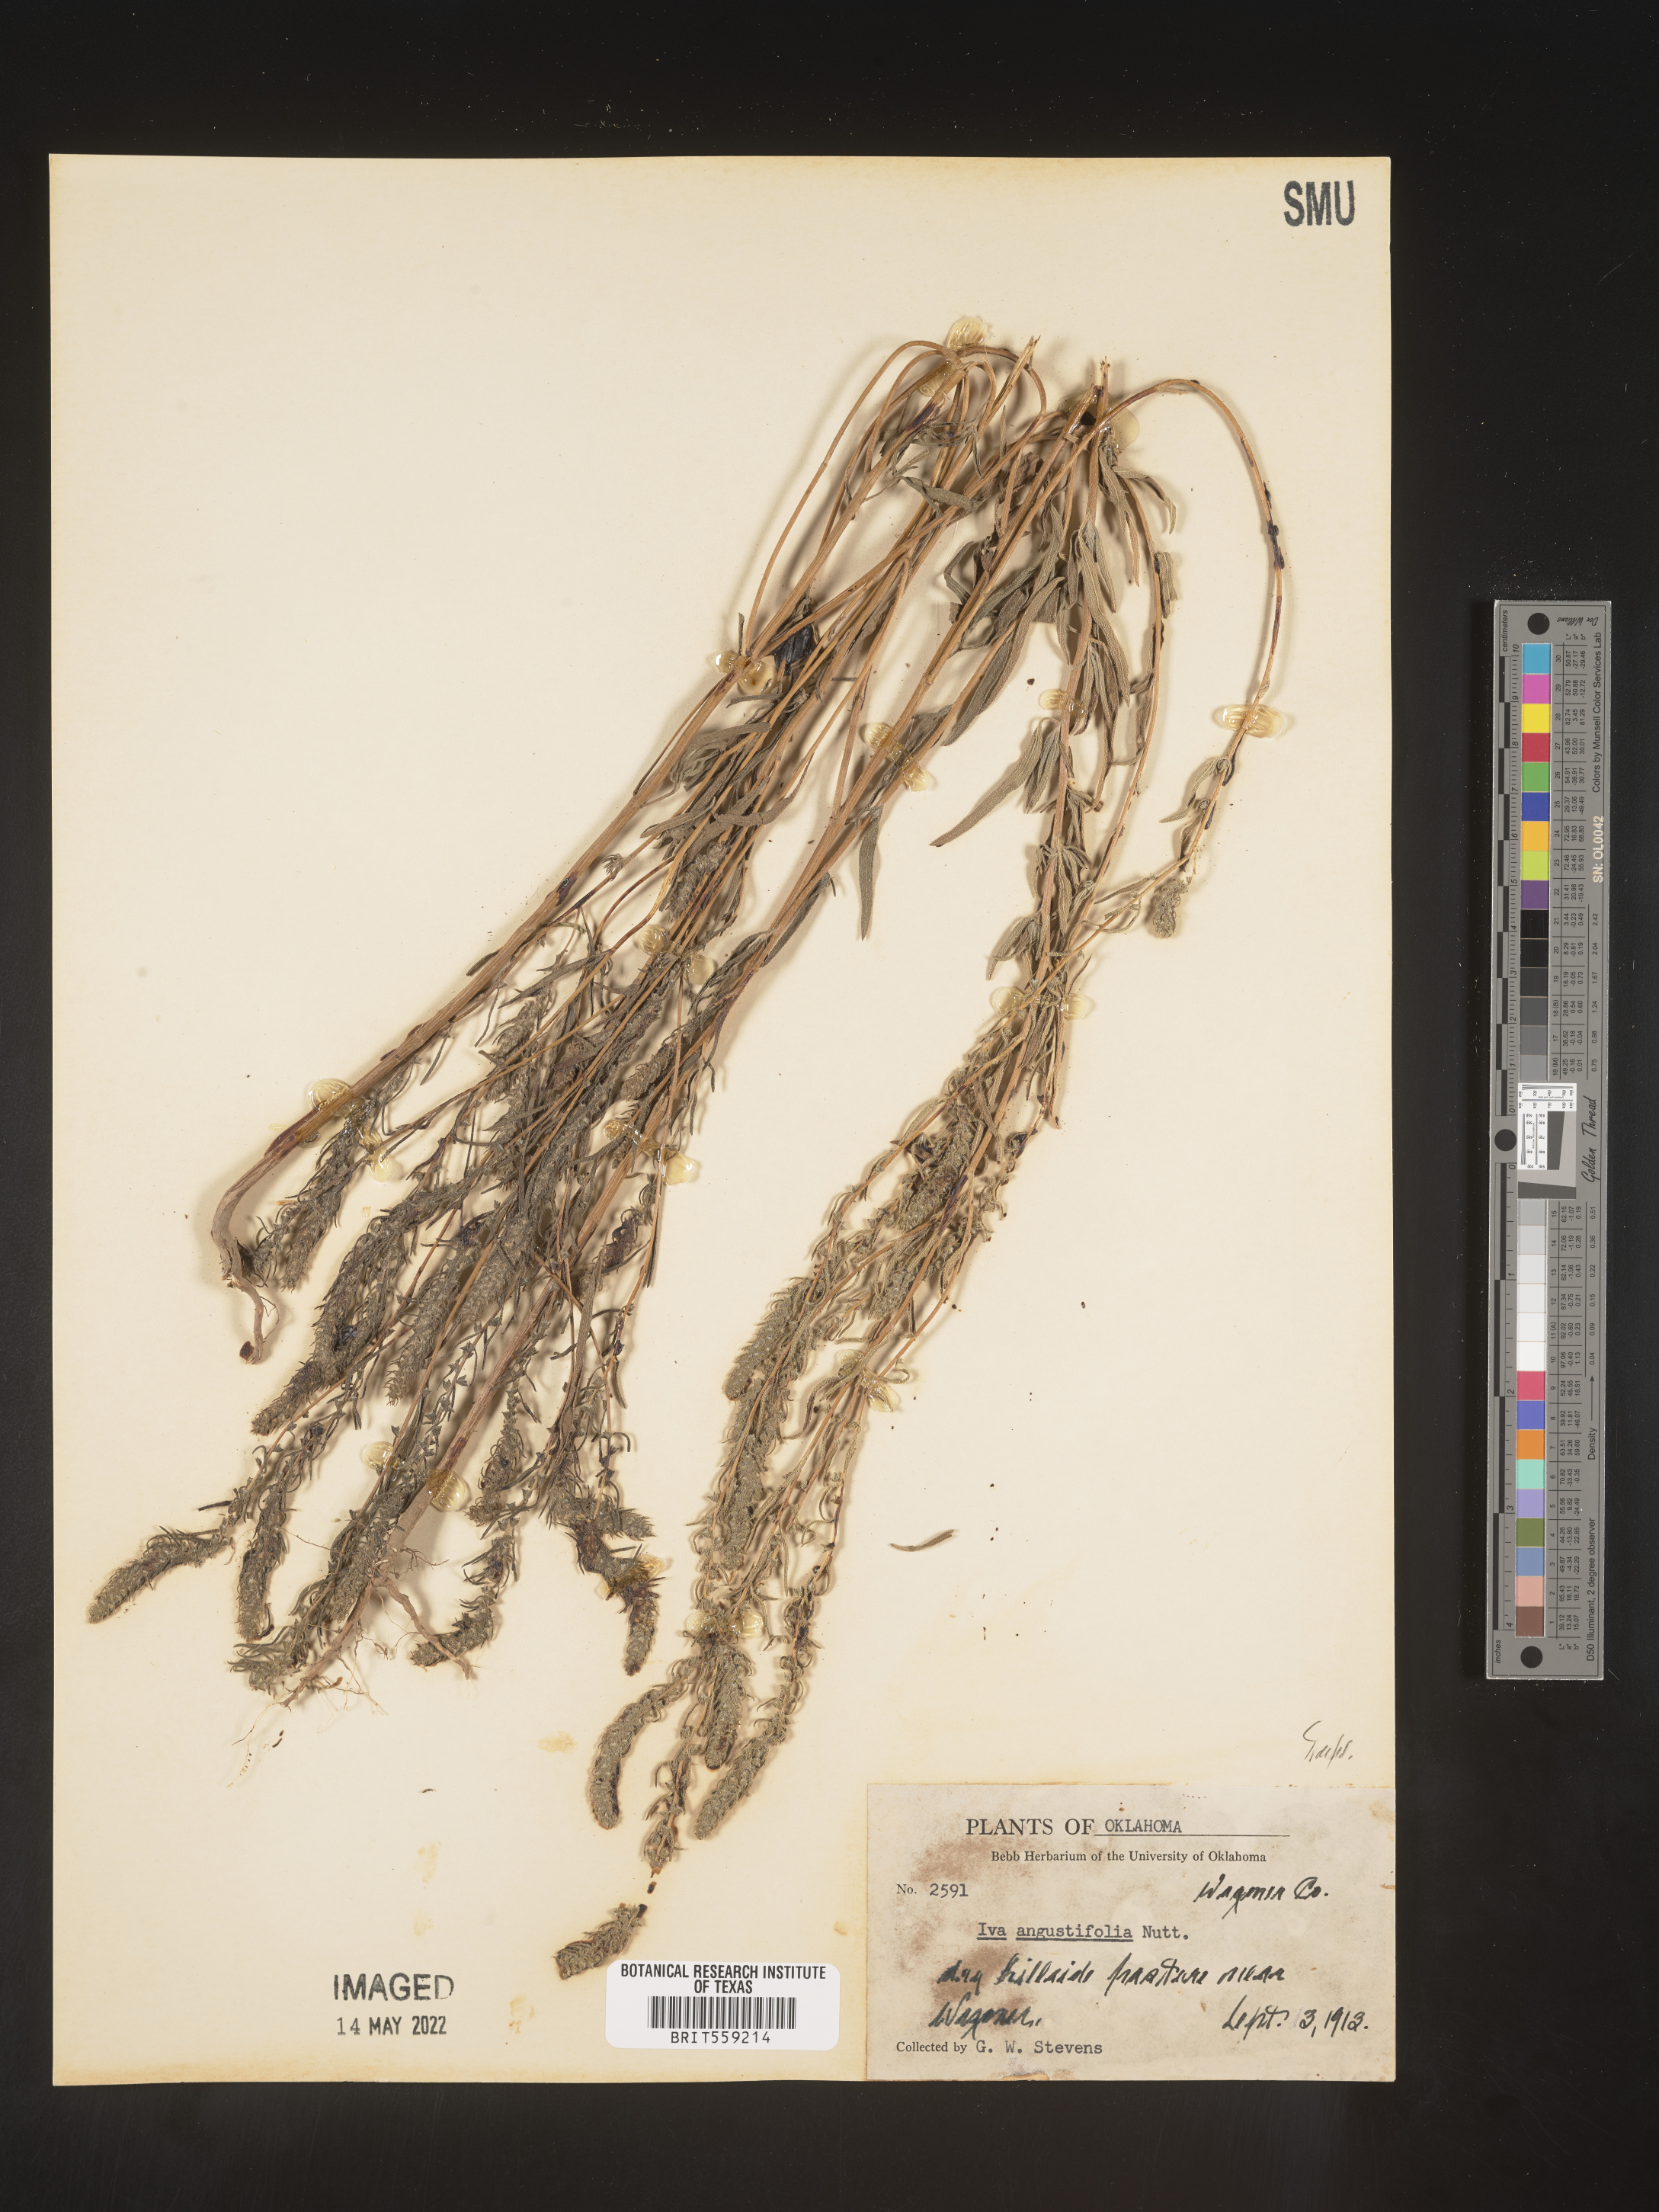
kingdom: Plantae
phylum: Tracheophyta
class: Magnoliopsida
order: Asterales
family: Asteraceae
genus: Iva
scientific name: Iva asperifolia
